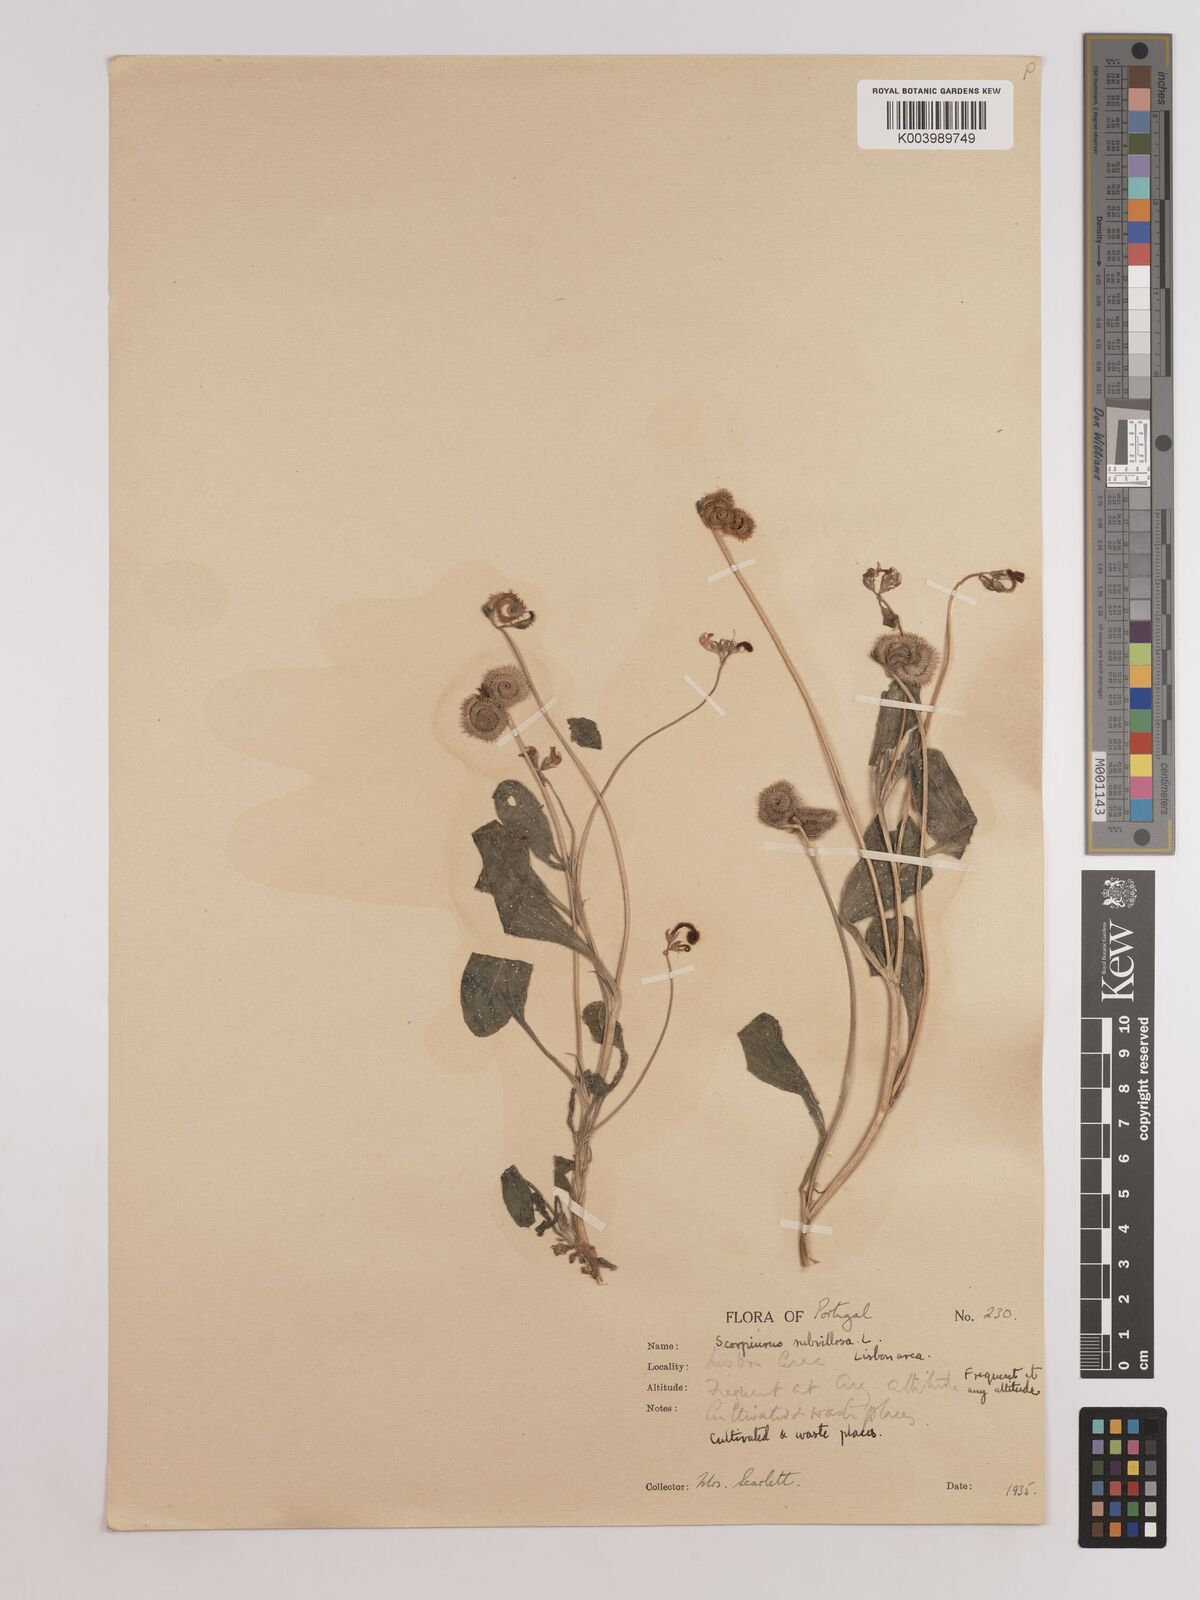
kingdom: Plantae
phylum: Tracheophyta
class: Magnoliopsida
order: Fabales
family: Fabaceae
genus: Scorpiurus
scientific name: Scorpiurus muricatus
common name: Caterpillar-plant
